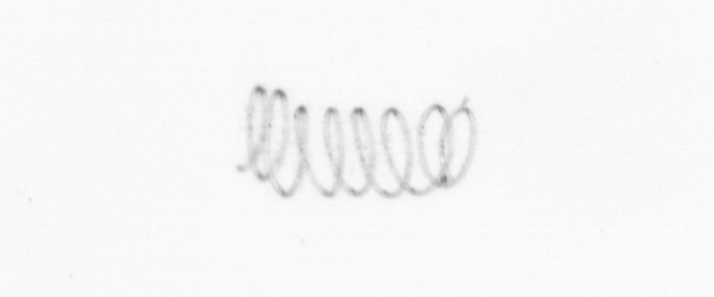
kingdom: Chromista
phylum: Ochrophyta
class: Bacillariophyceae
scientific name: Bacillariophyceae
